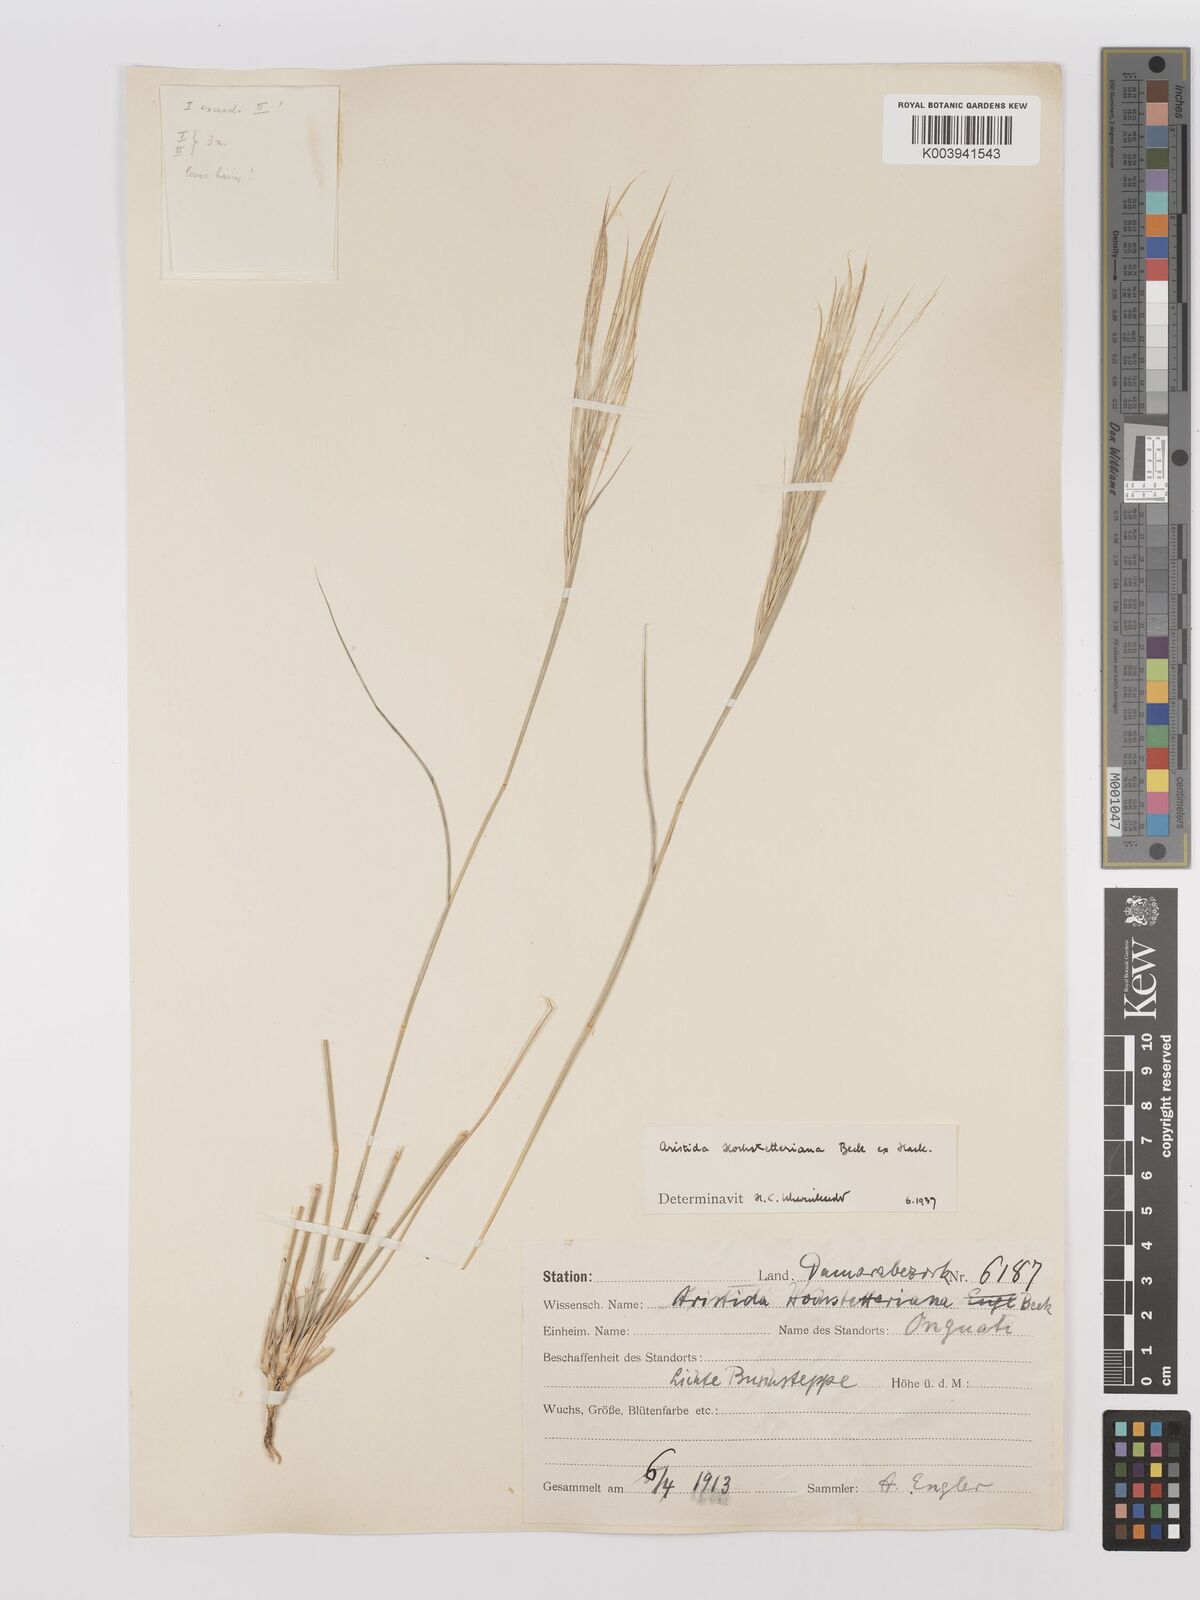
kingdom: Plantae
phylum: Tracheophyta
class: Liliopsida
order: Poales
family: Poaceae
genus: Stipagrostis
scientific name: Stipagrostis hochstetteriana
